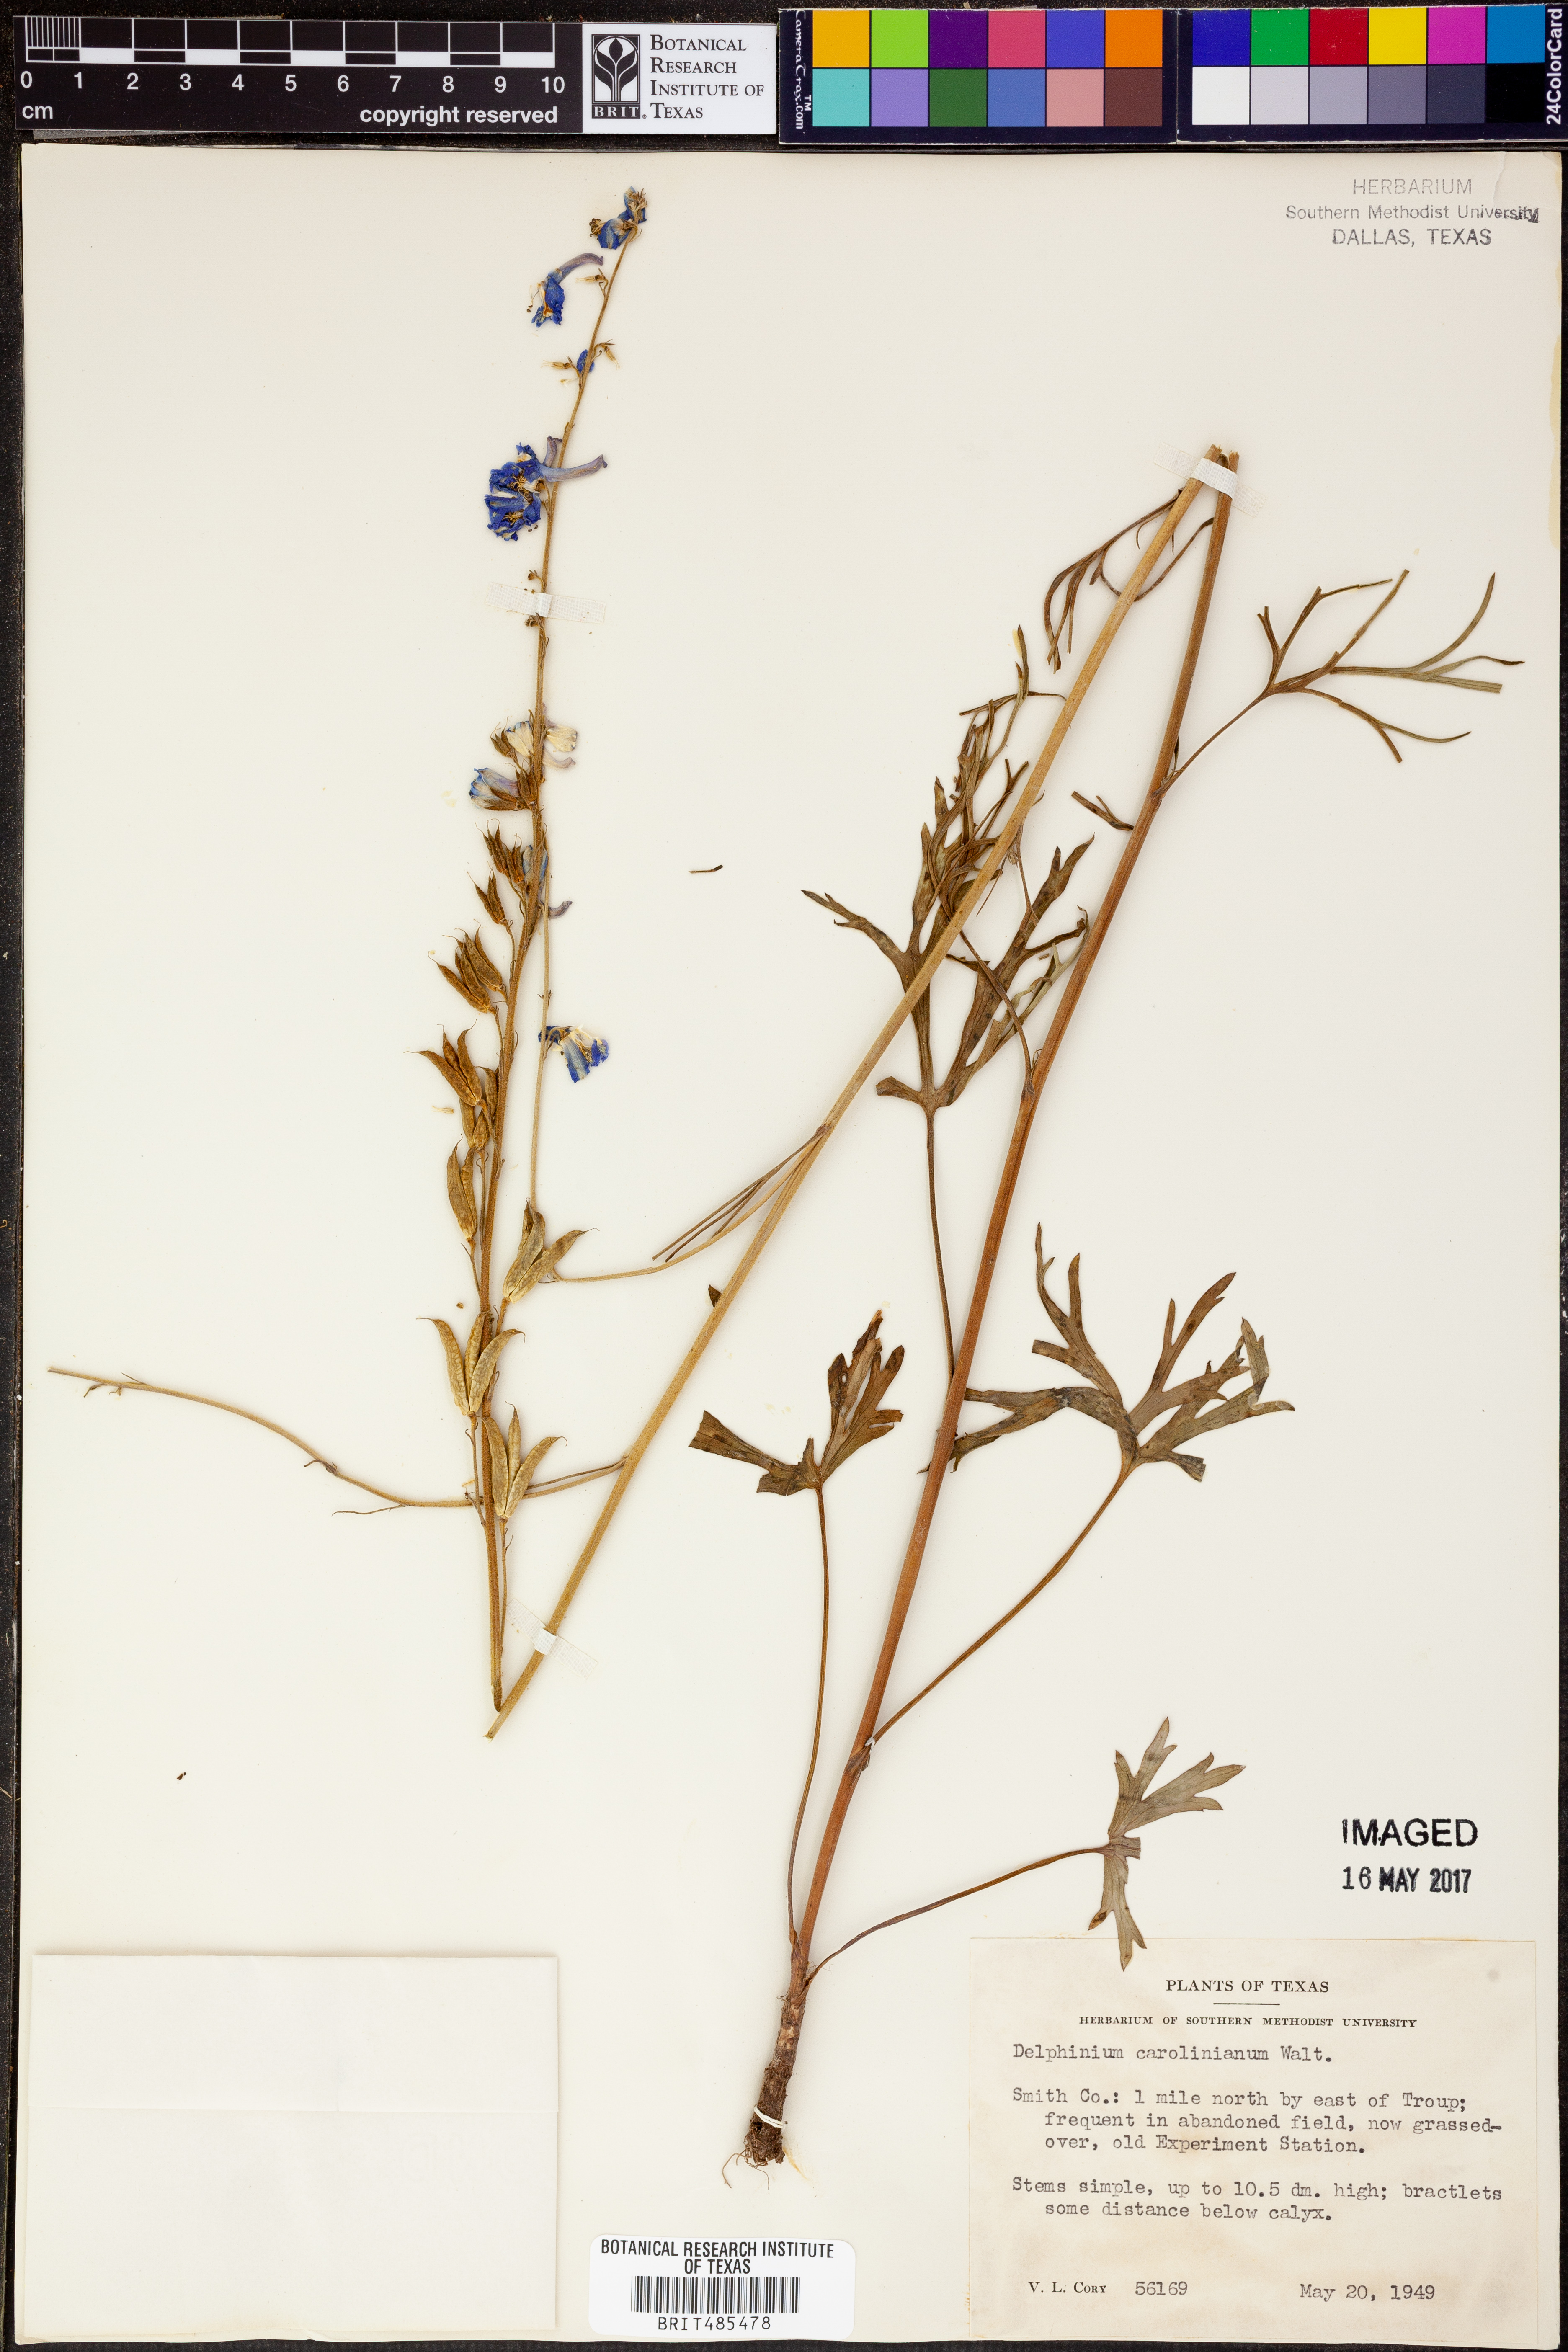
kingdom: Plantae
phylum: Tracheophyta
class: Magnoliopsida
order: Ranunculales
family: Ranunculaceae
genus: Delphinium
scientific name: Delphinium carolinianum
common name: Carolina larkspur
